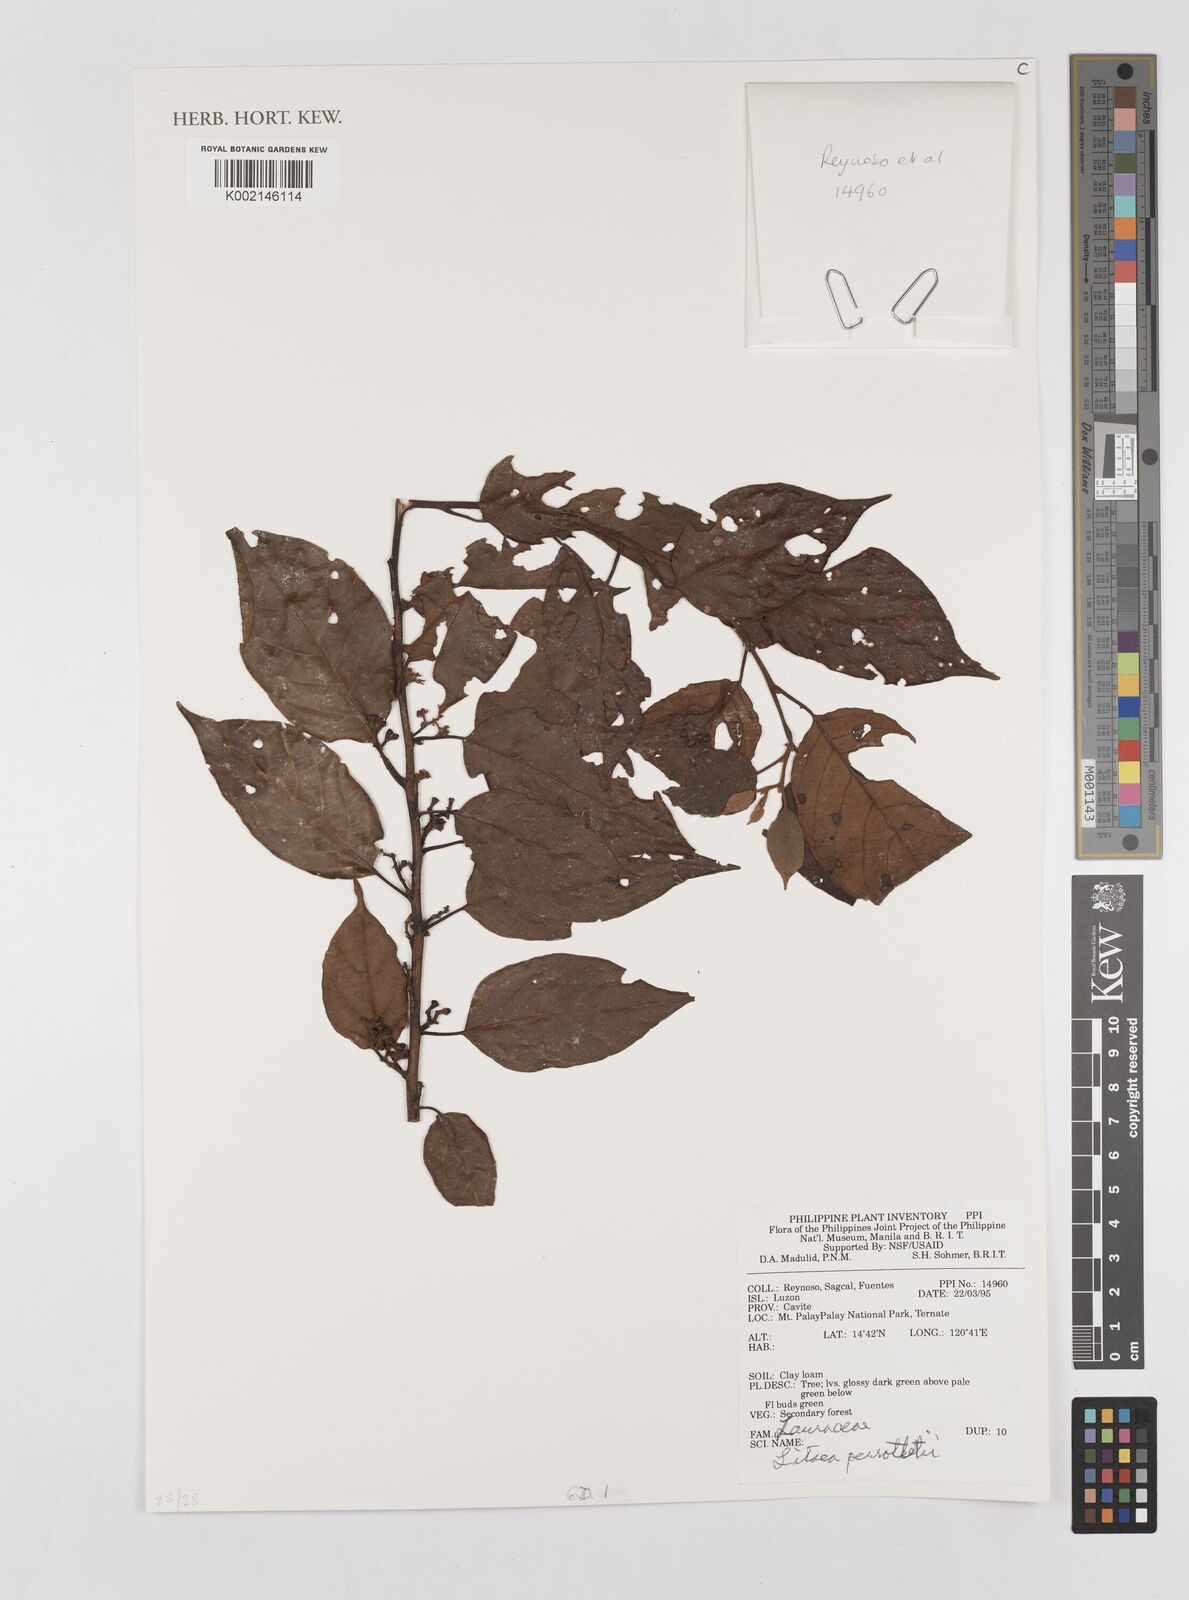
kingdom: Plantae
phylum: Tracheophyta
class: Magnoliopsida
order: Laurales
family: Lauraceae
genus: Litsea
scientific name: Litsea cordata
